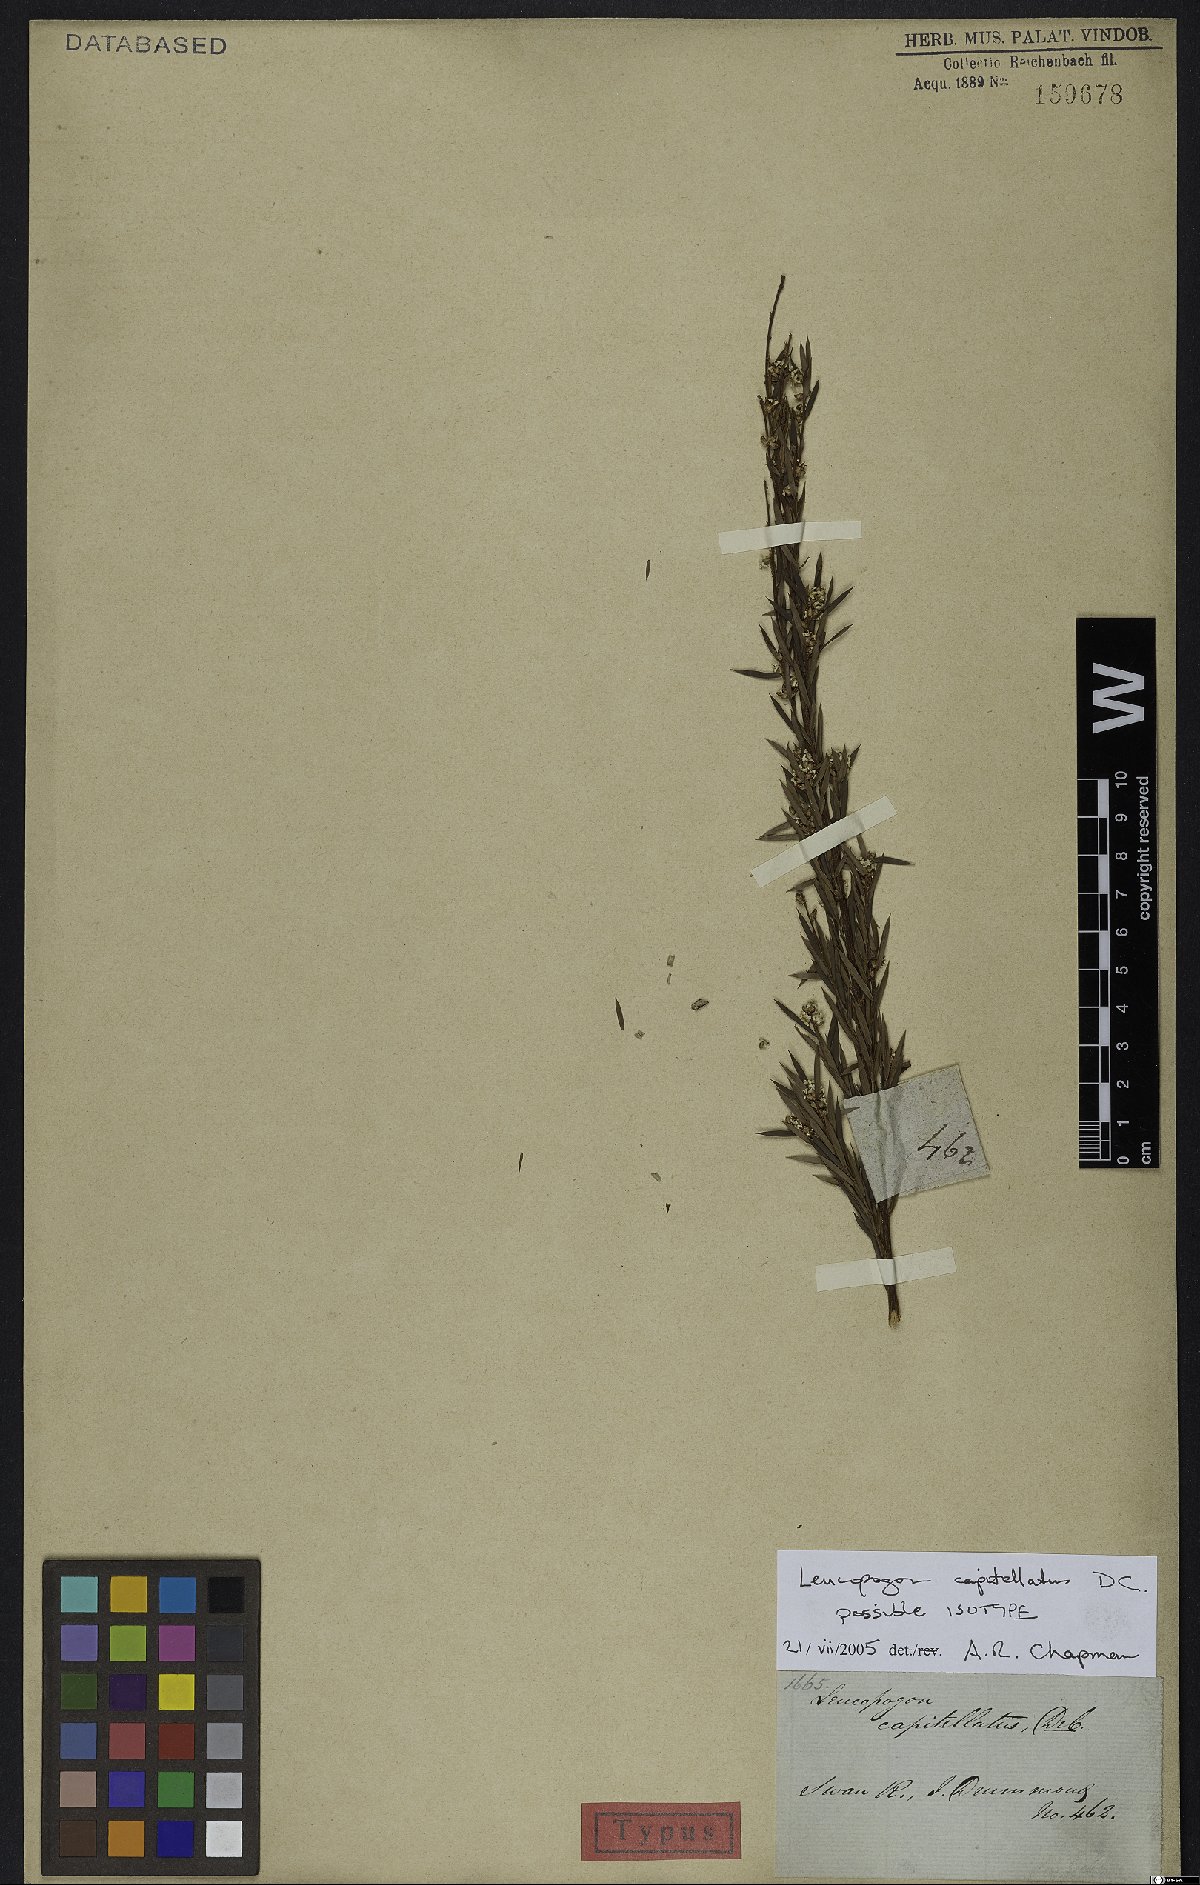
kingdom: Plantae
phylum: Tracheophyta
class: Magnoliopsida
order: Ericales
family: Ericaceae
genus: Leucopogon
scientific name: Leucopogon capitellatus
